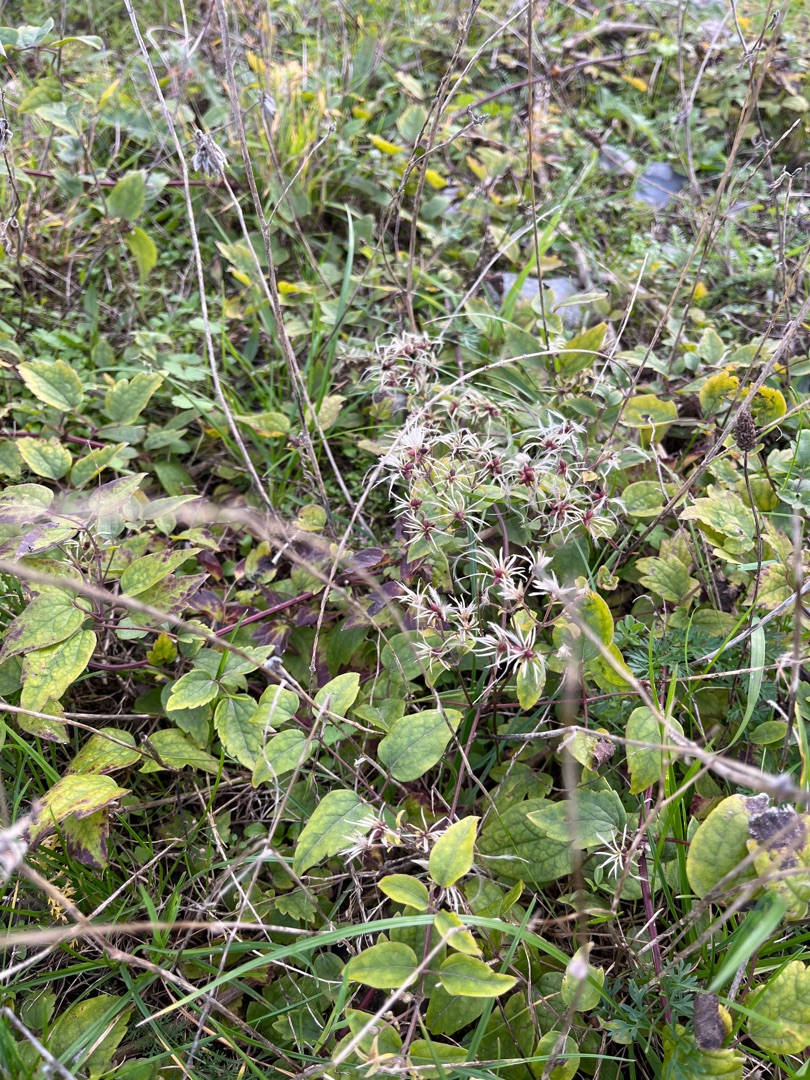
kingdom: Plantae
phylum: Tracheophyta
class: Magnoliopsida
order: Ranunculales
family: Ranunculaceae
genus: Clematis
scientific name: Clematis vitalba
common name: Skovranke
